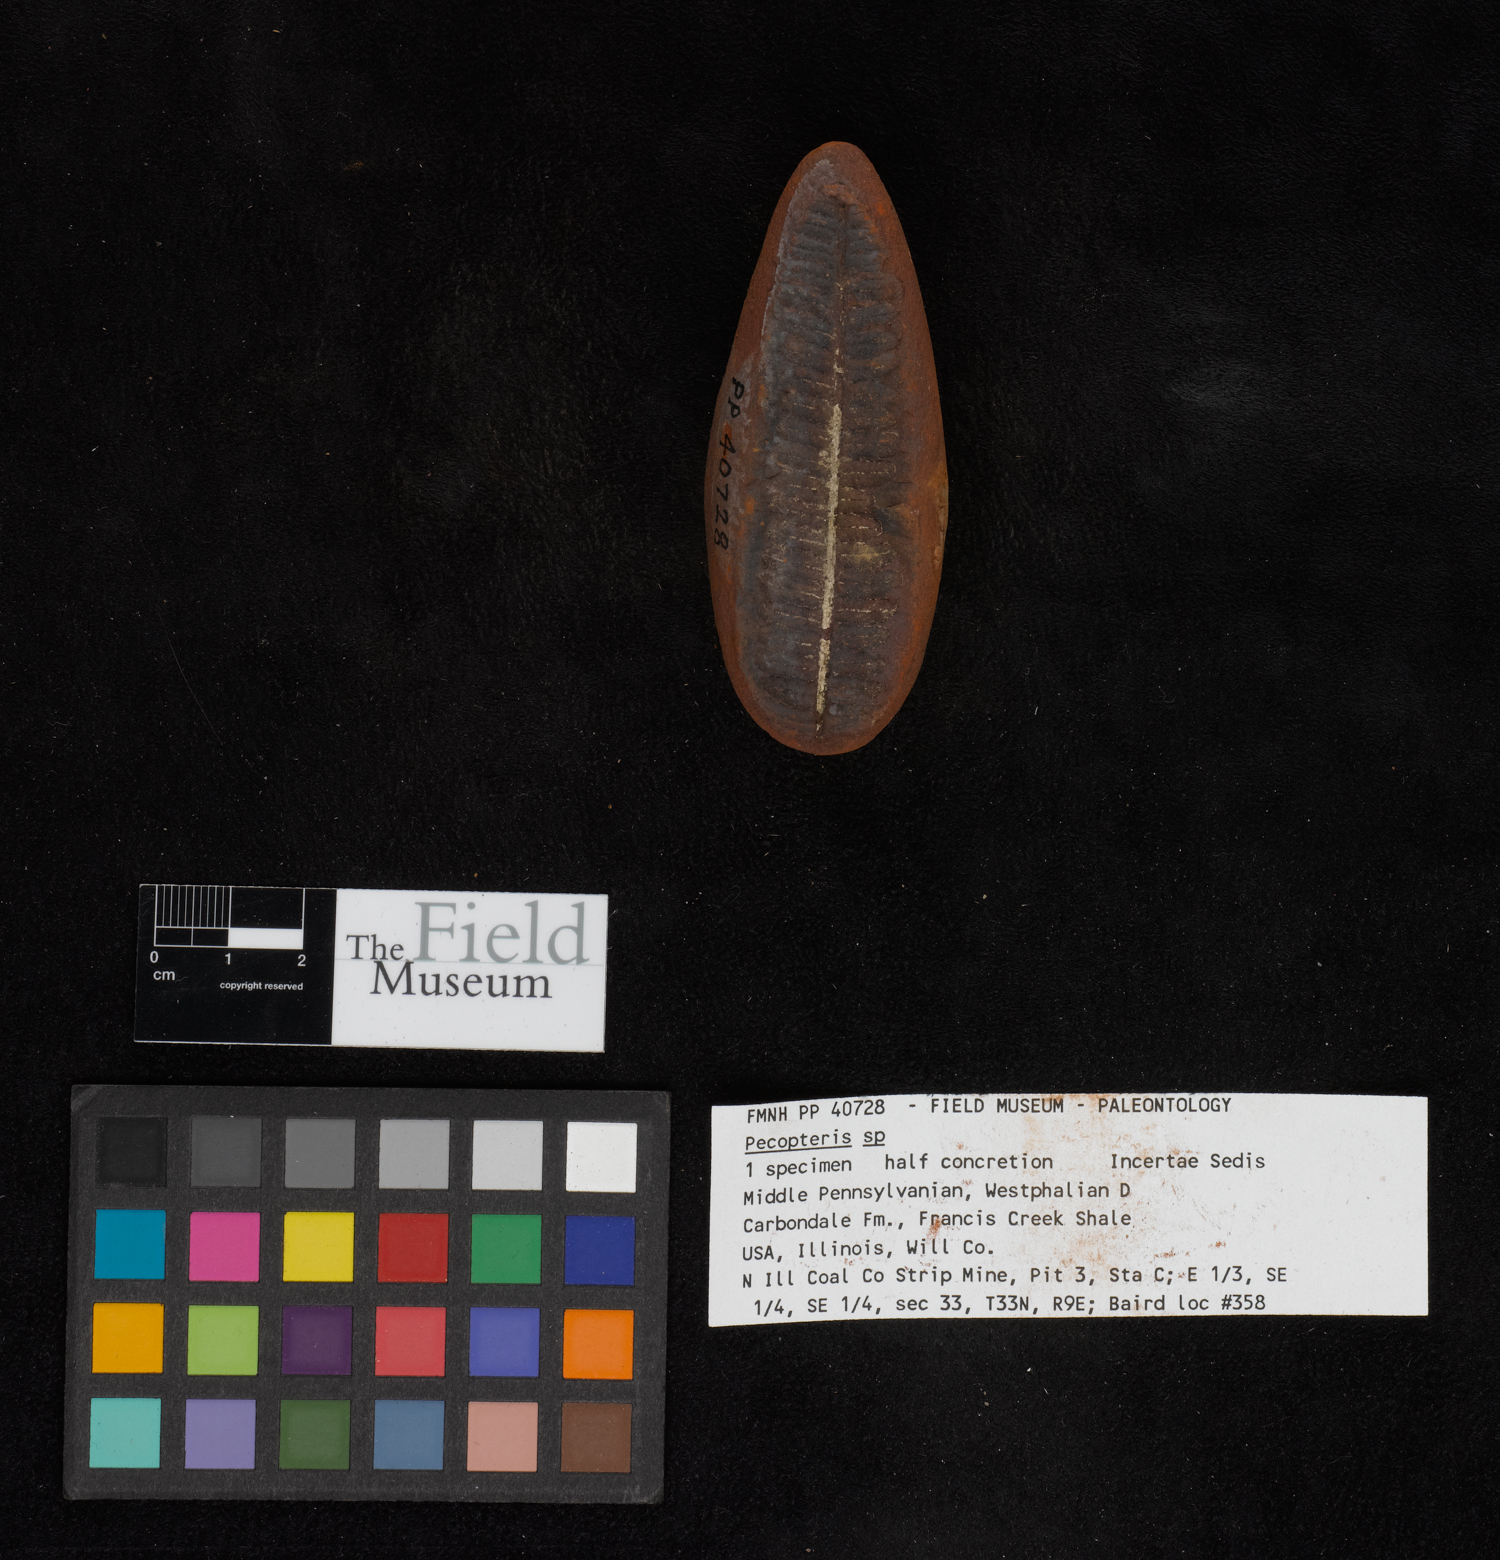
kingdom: Plantae
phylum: Tracheophyta
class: Polypodiopsida
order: Marattiales
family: Asterothecaceae
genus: Pecopteris
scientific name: Pecopteris
